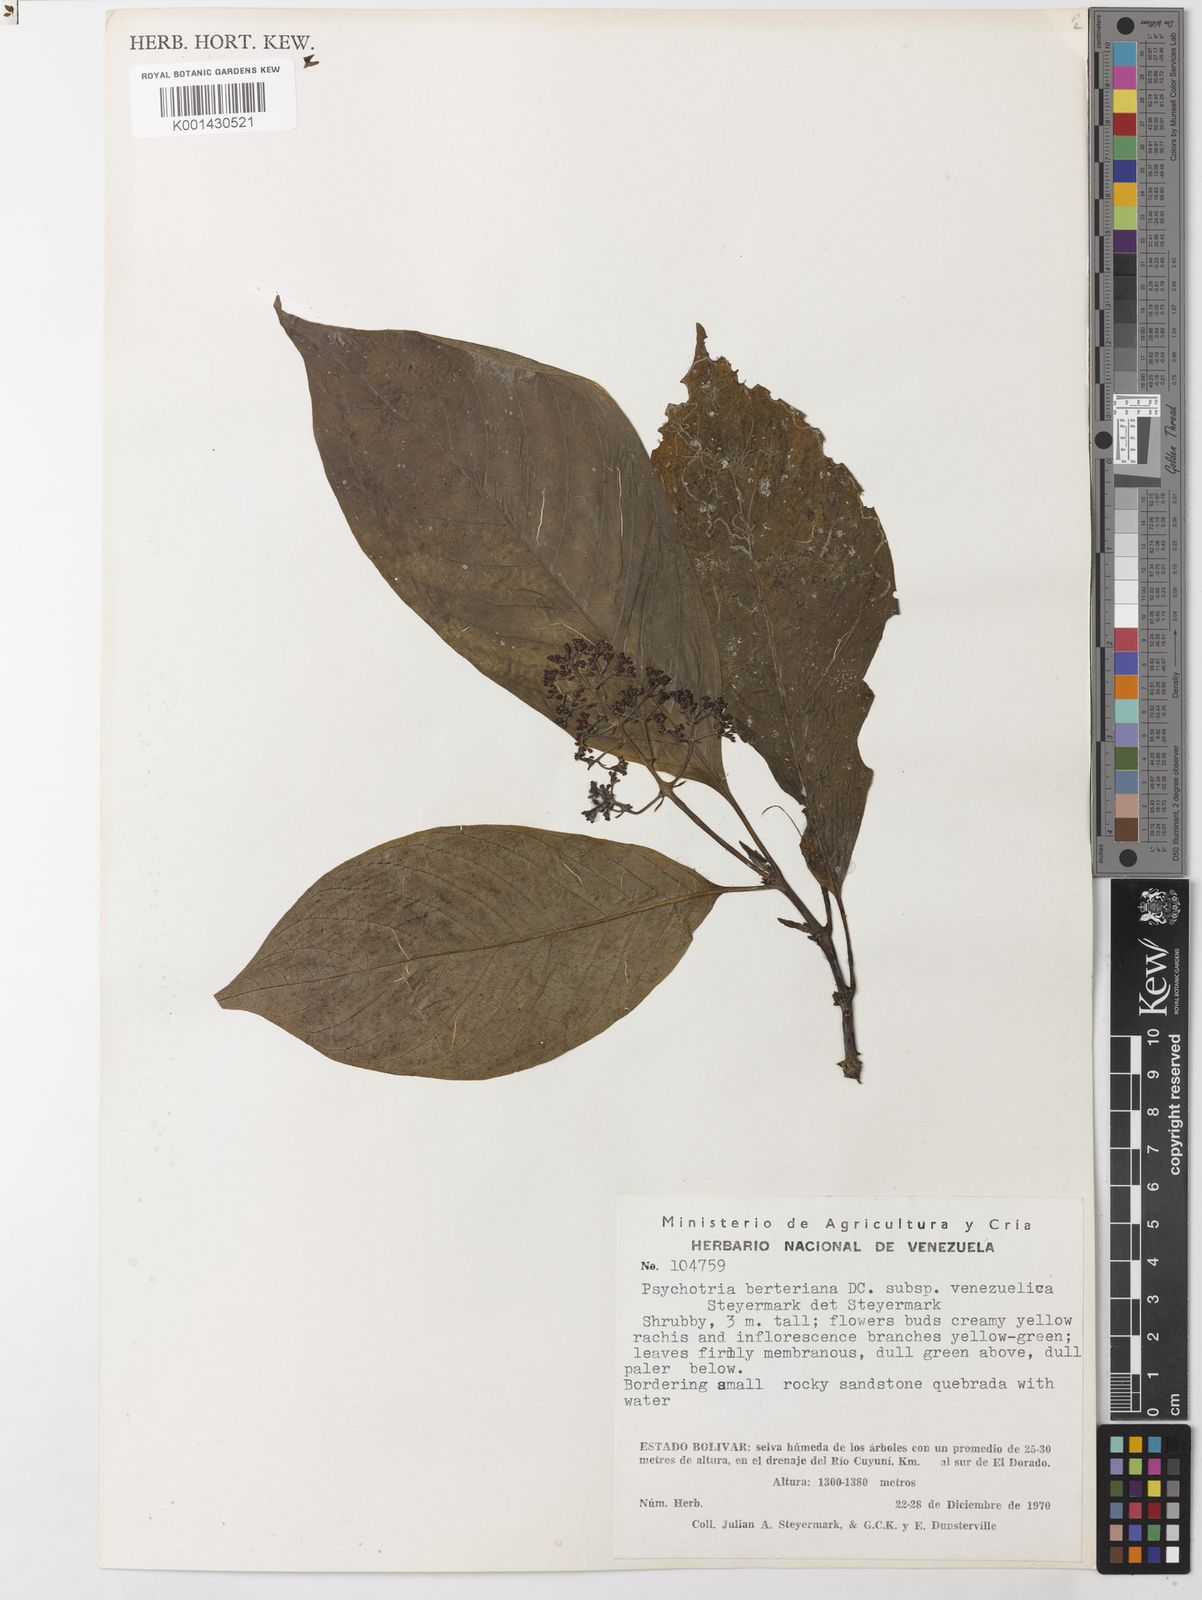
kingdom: Plantae
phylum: Tracheophyta
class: Magnoliopsida
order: Gentianales
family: Rubiaceae
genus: Palicourea
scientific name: Palicourea berteroana
